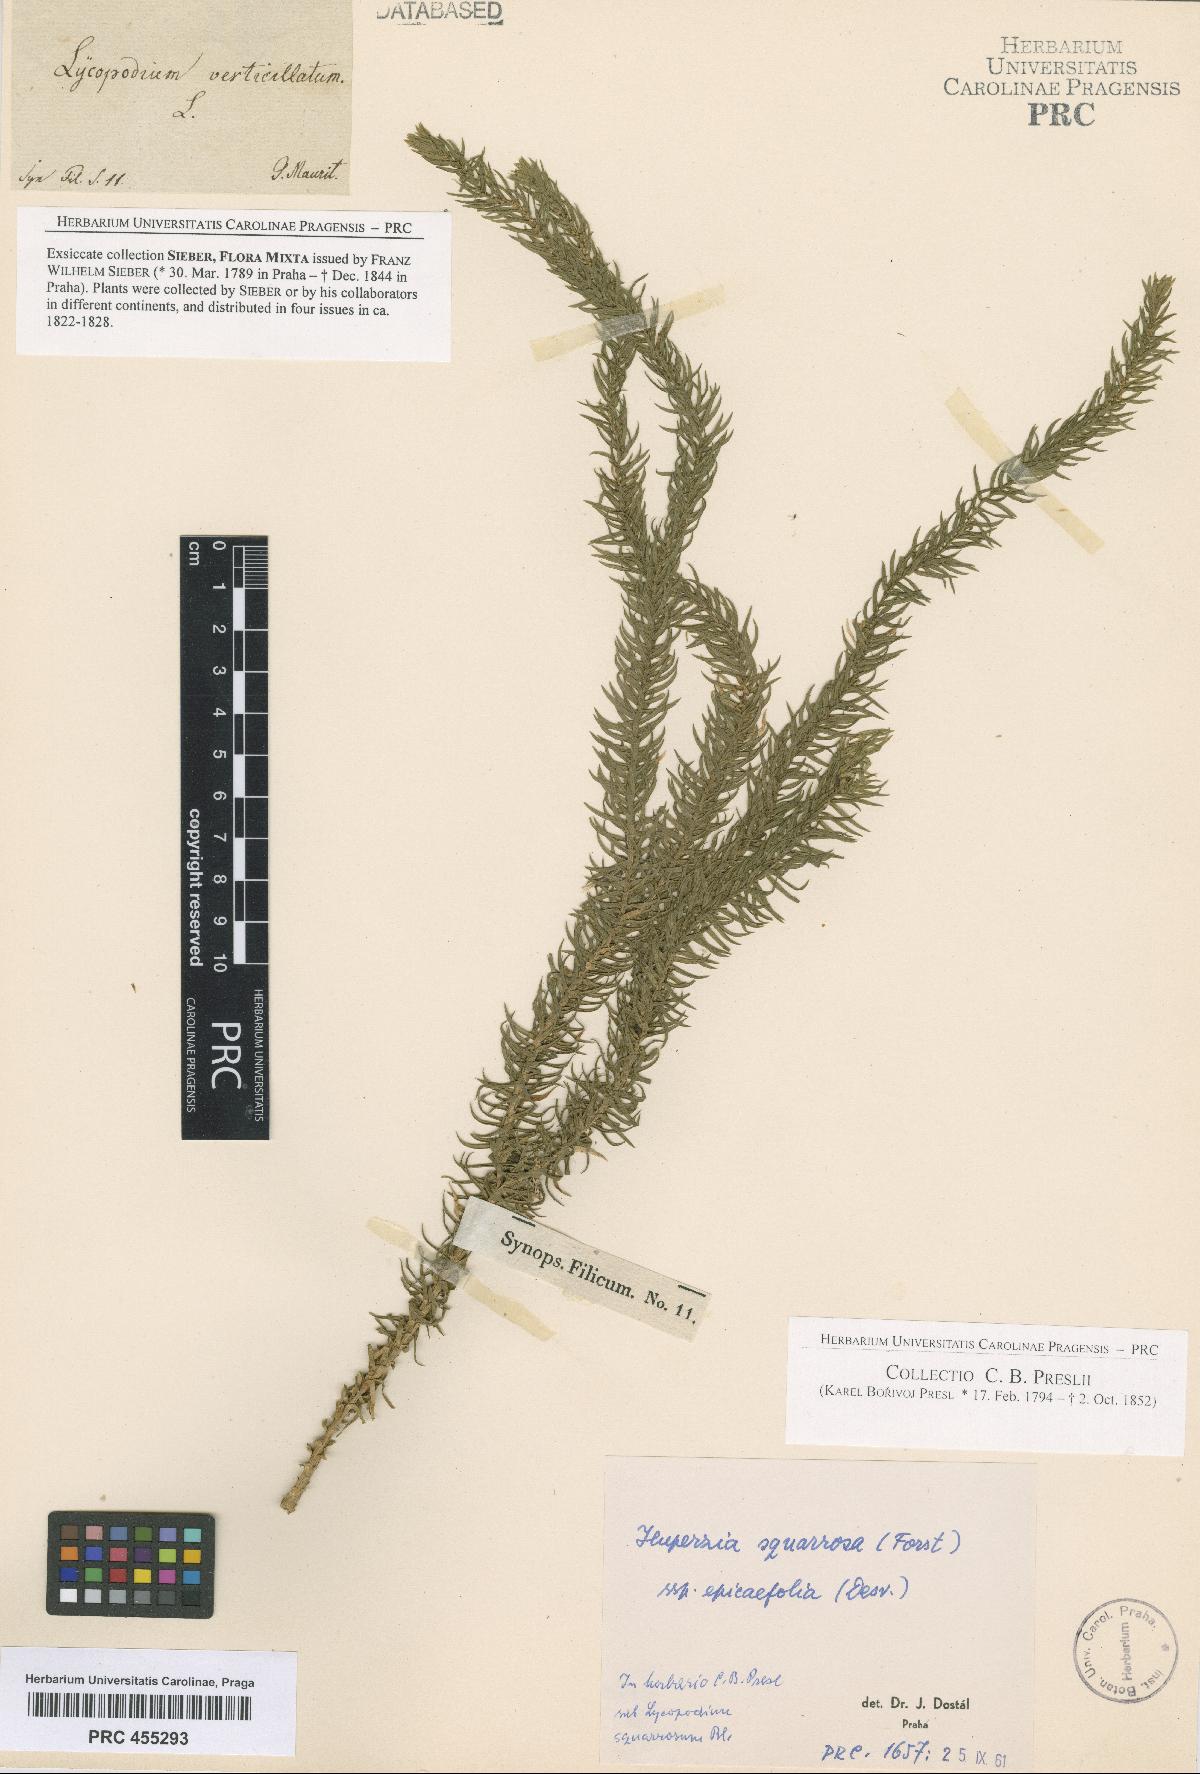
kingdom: Plantae
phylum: Tracheophyta
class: Lycopodiopsida
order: Lycopodiales
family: Lycopodiaceae
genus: Phlegmariurus
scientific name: Phlegmariurus squarrosus
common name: Rock tassel-fern
